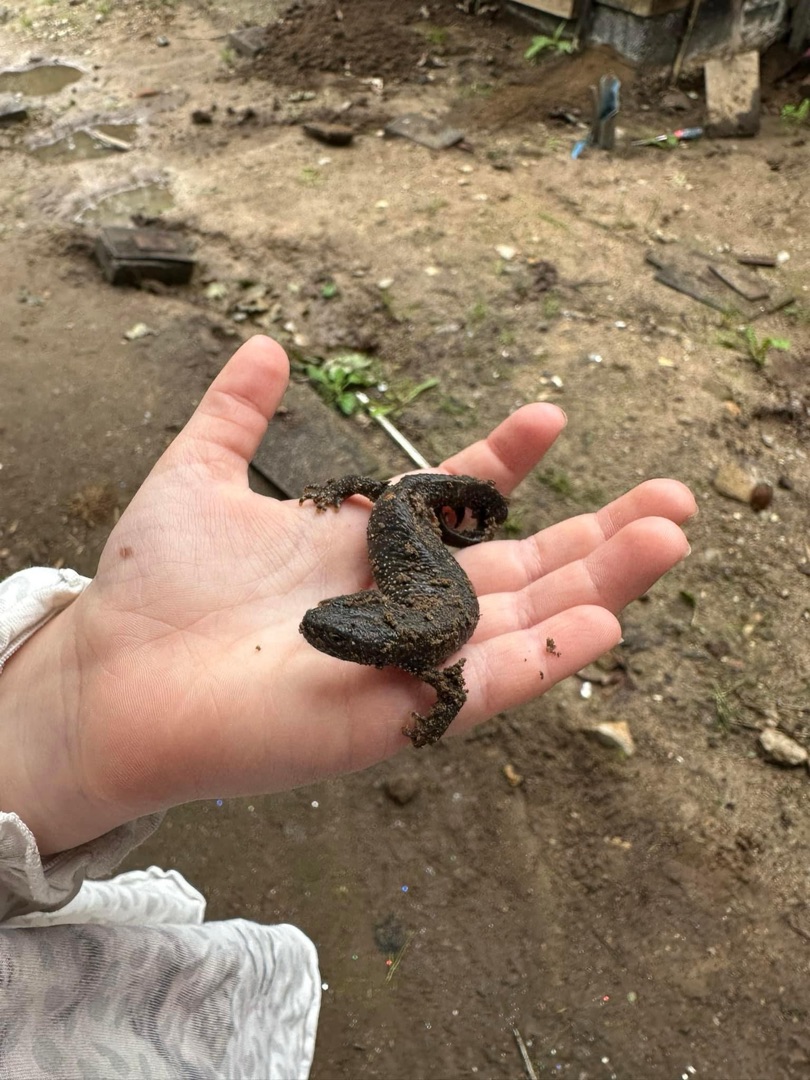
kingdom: Animalia
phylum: Chordata
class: Amphibia
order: Caudata
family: Salamandridae
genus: Triturus
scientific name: Triturus cristatus
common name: Stor vandsalamander
